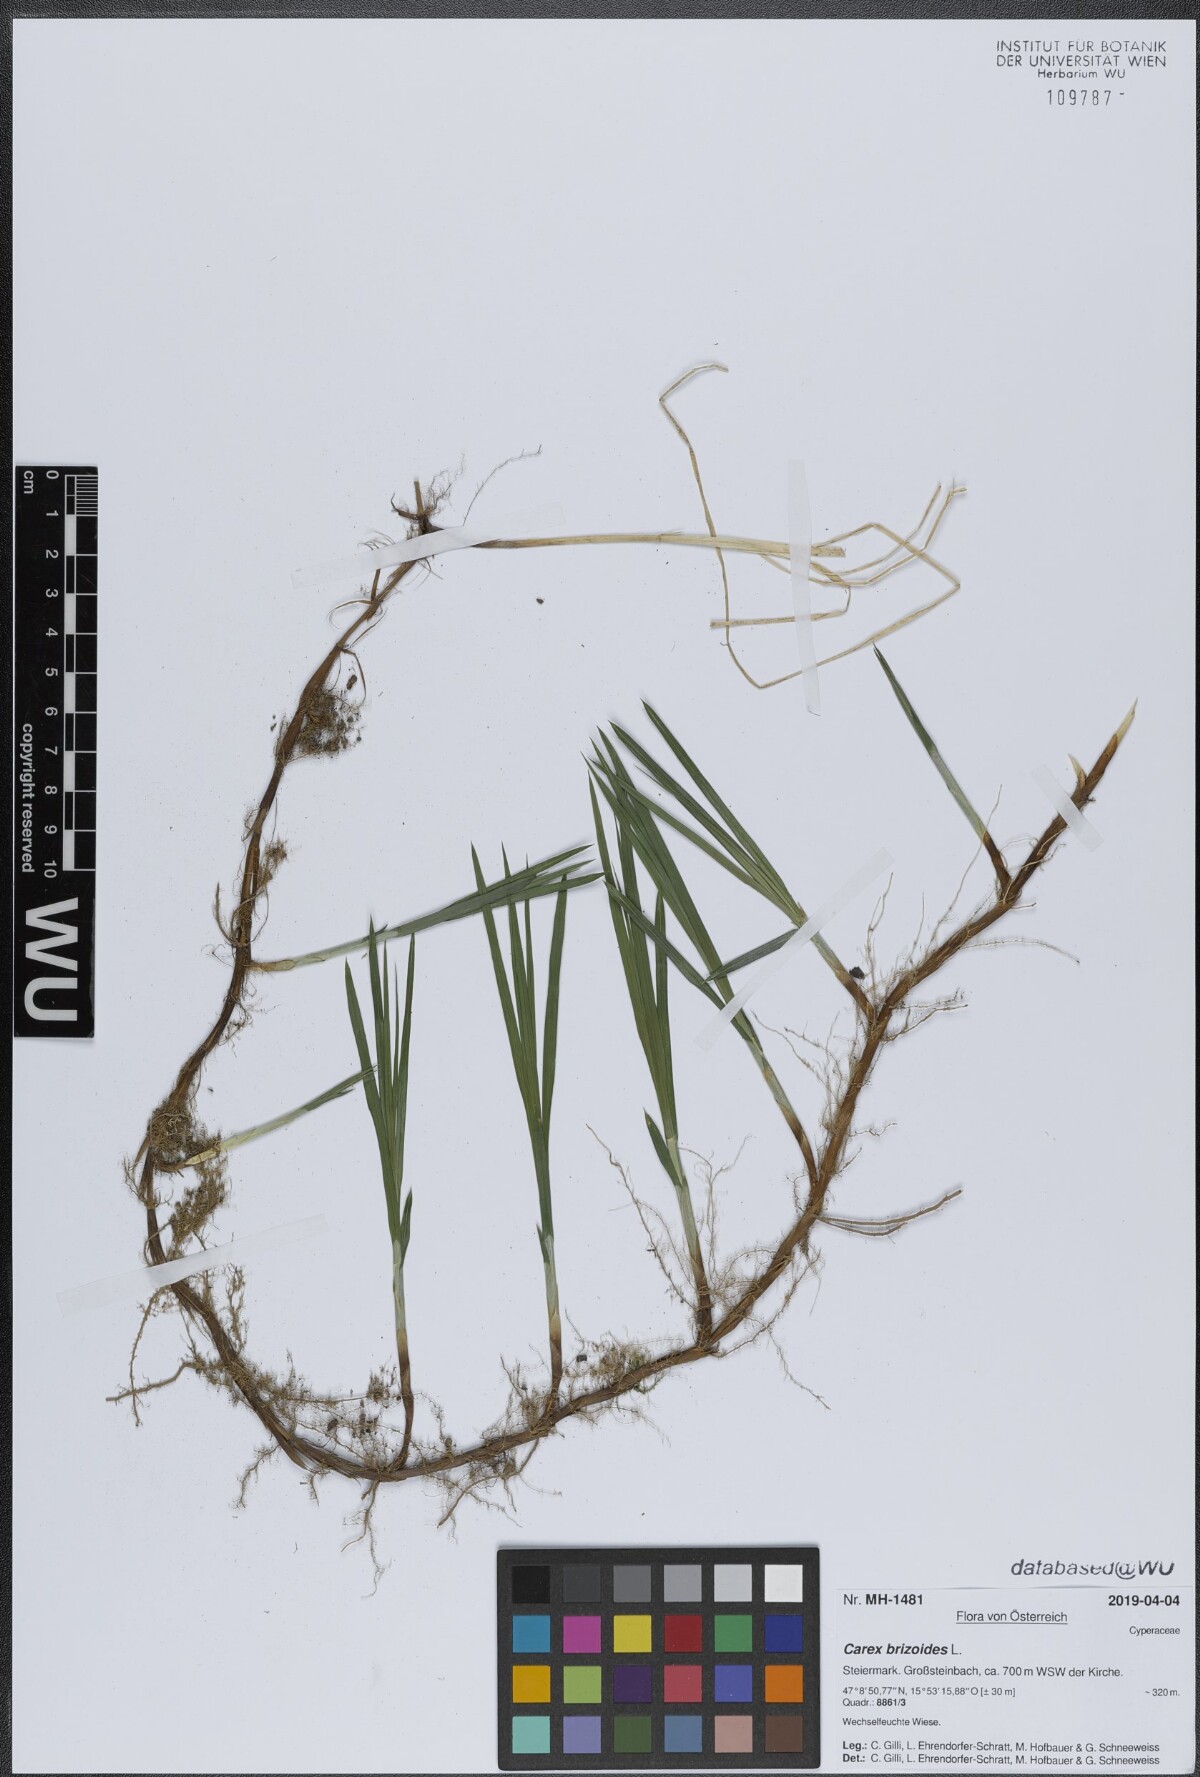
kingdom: Plantae
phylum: Tracheophyta
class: Liliopsida
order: Poales
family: Cyperaceae
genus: Carex
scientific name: Carex brizoides
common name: Quaking-grass sedge
